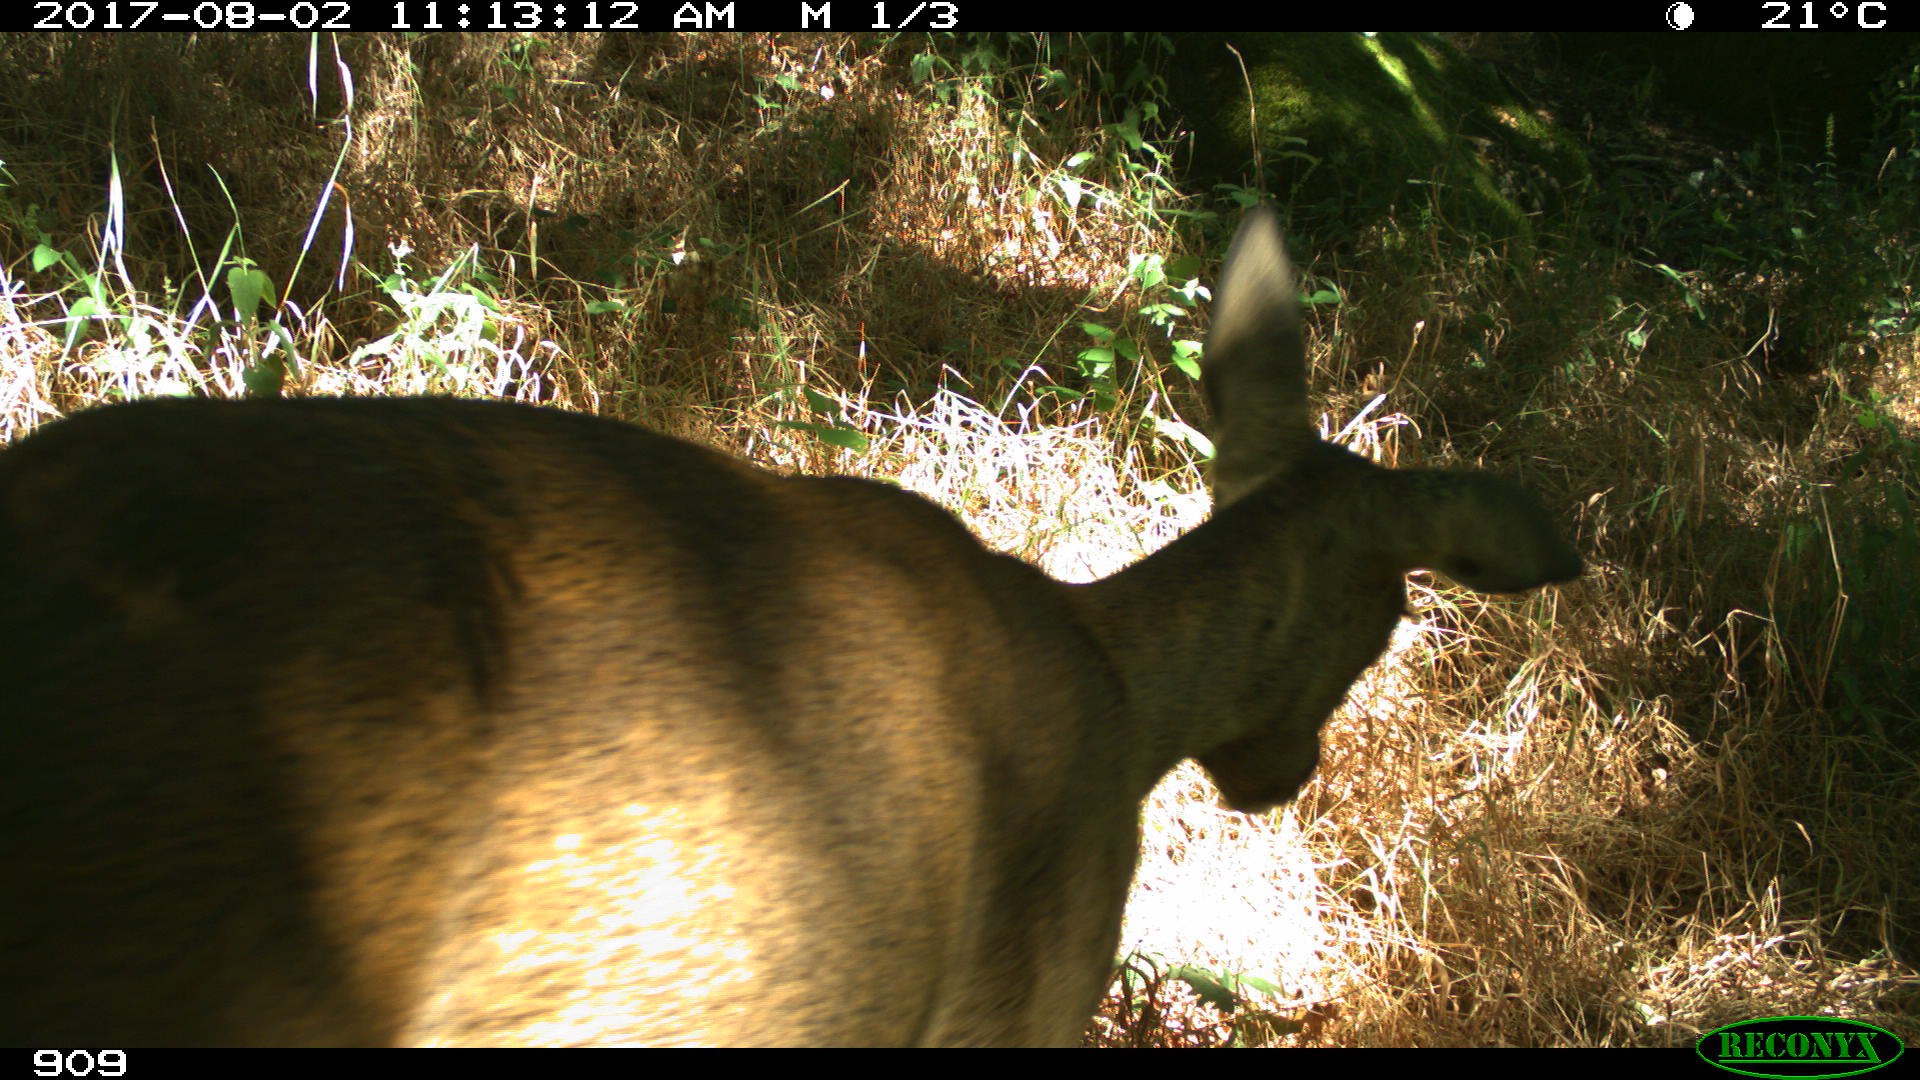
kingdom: Animalia
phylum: Chordata
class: Mammalia
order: Artiodactyla
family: Cervidae
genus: Capreolus
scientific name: Capreolus capreolus
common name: Western roe deer
